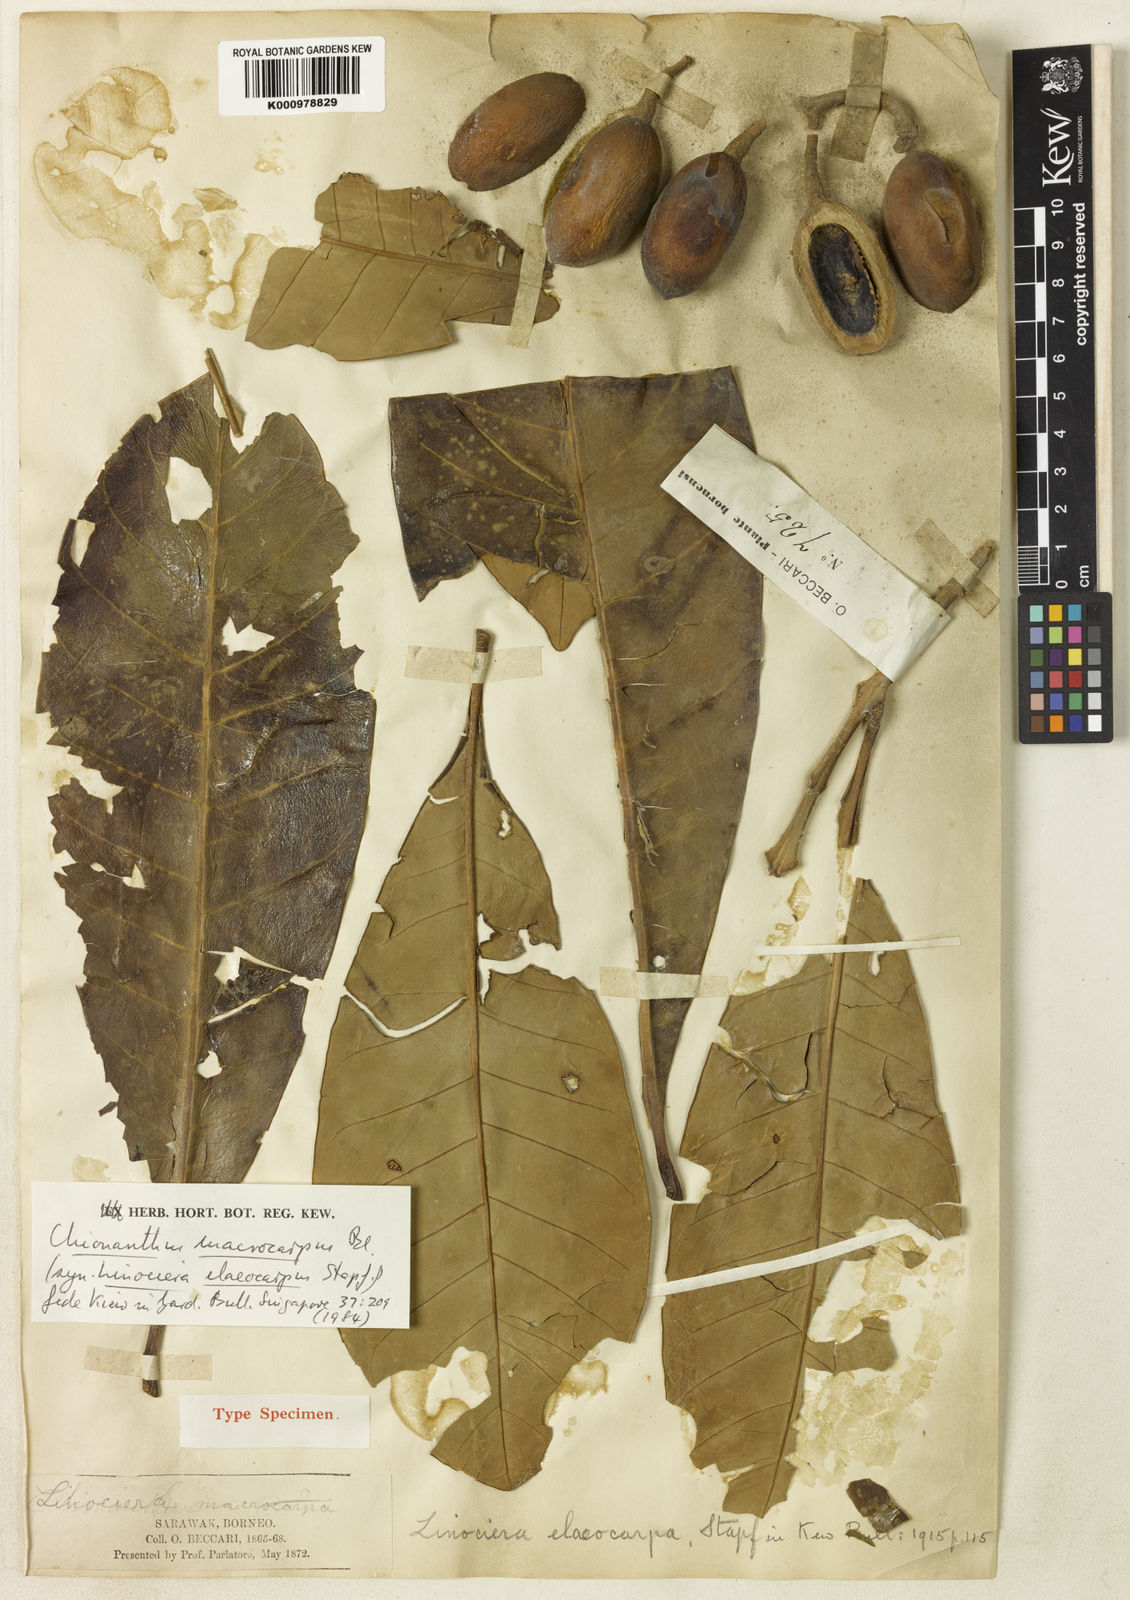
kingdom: Plantae
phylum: Tracheophyta
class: Magnoliopsida
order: Lamiales
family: Oleaceae
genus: Chionanthus
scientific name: Chionanthus macrocarpus
